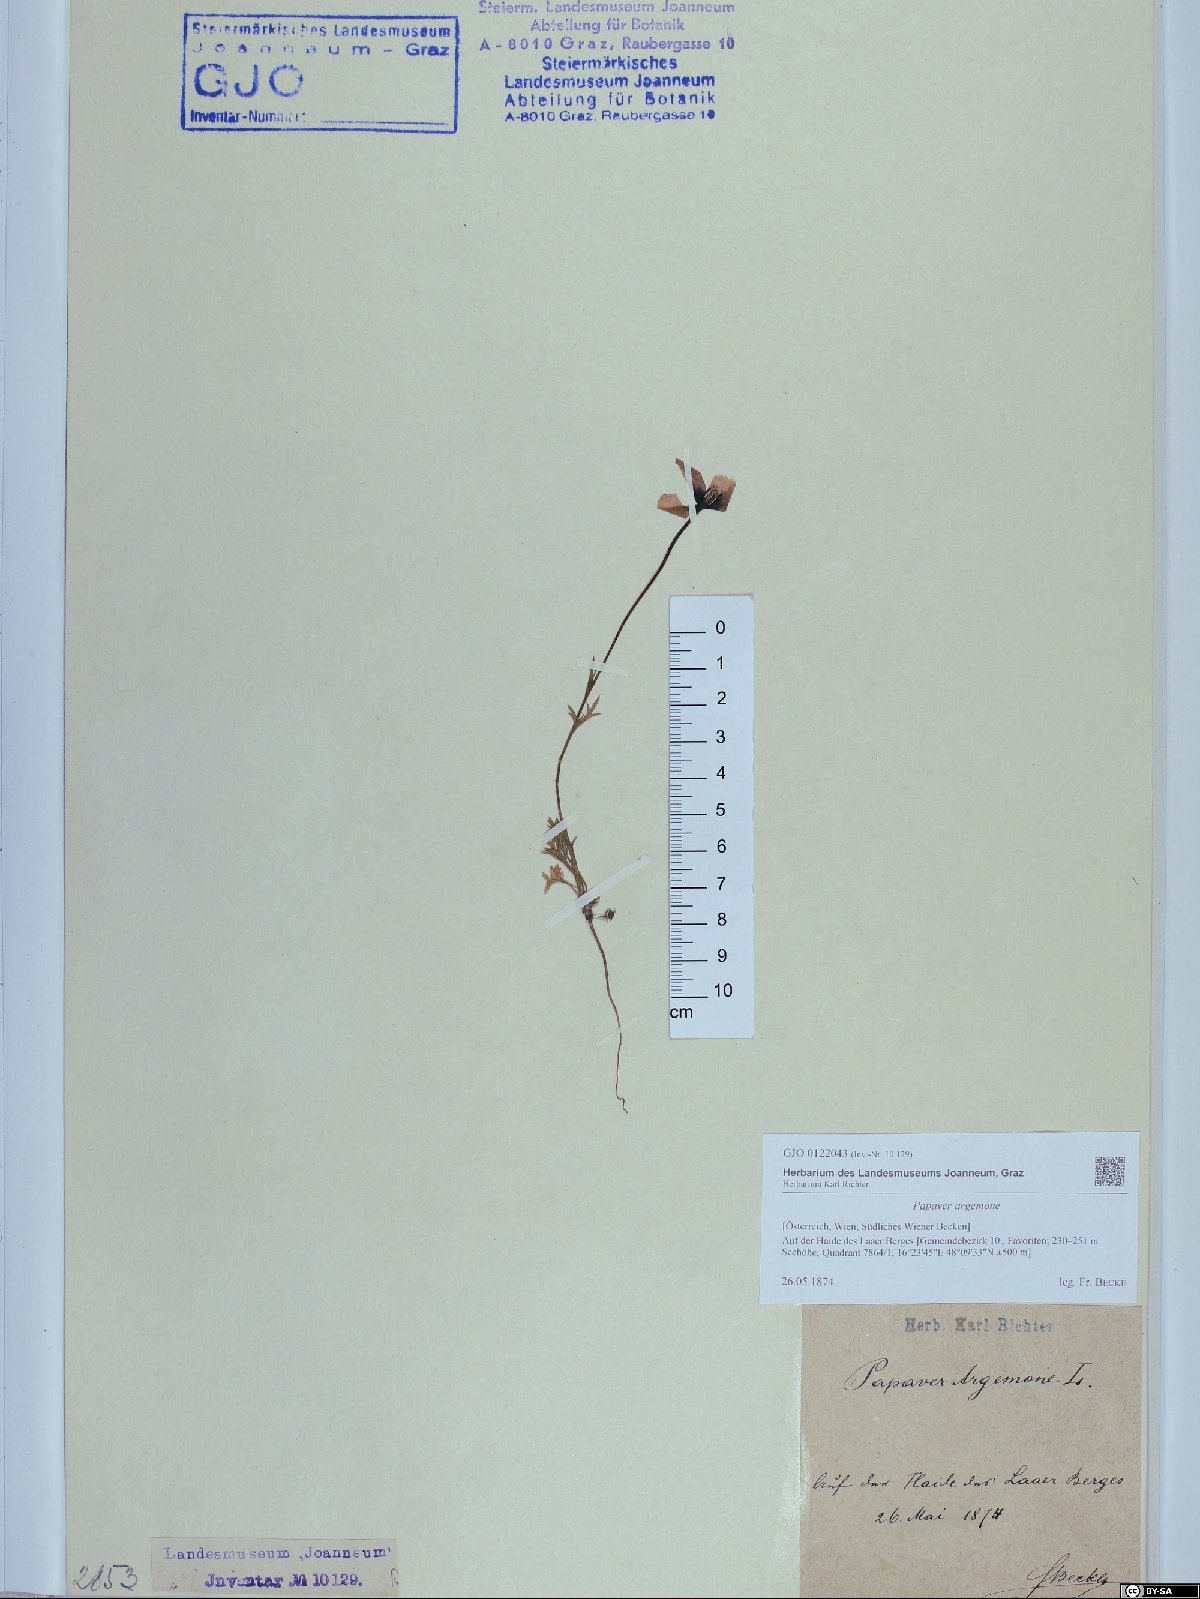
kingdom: Plantae
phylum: Tracheophyta
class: Magnoliopsida
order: Ranunculales
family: Papaveraceae
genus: Roemeria
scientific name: Roemeria argemone
